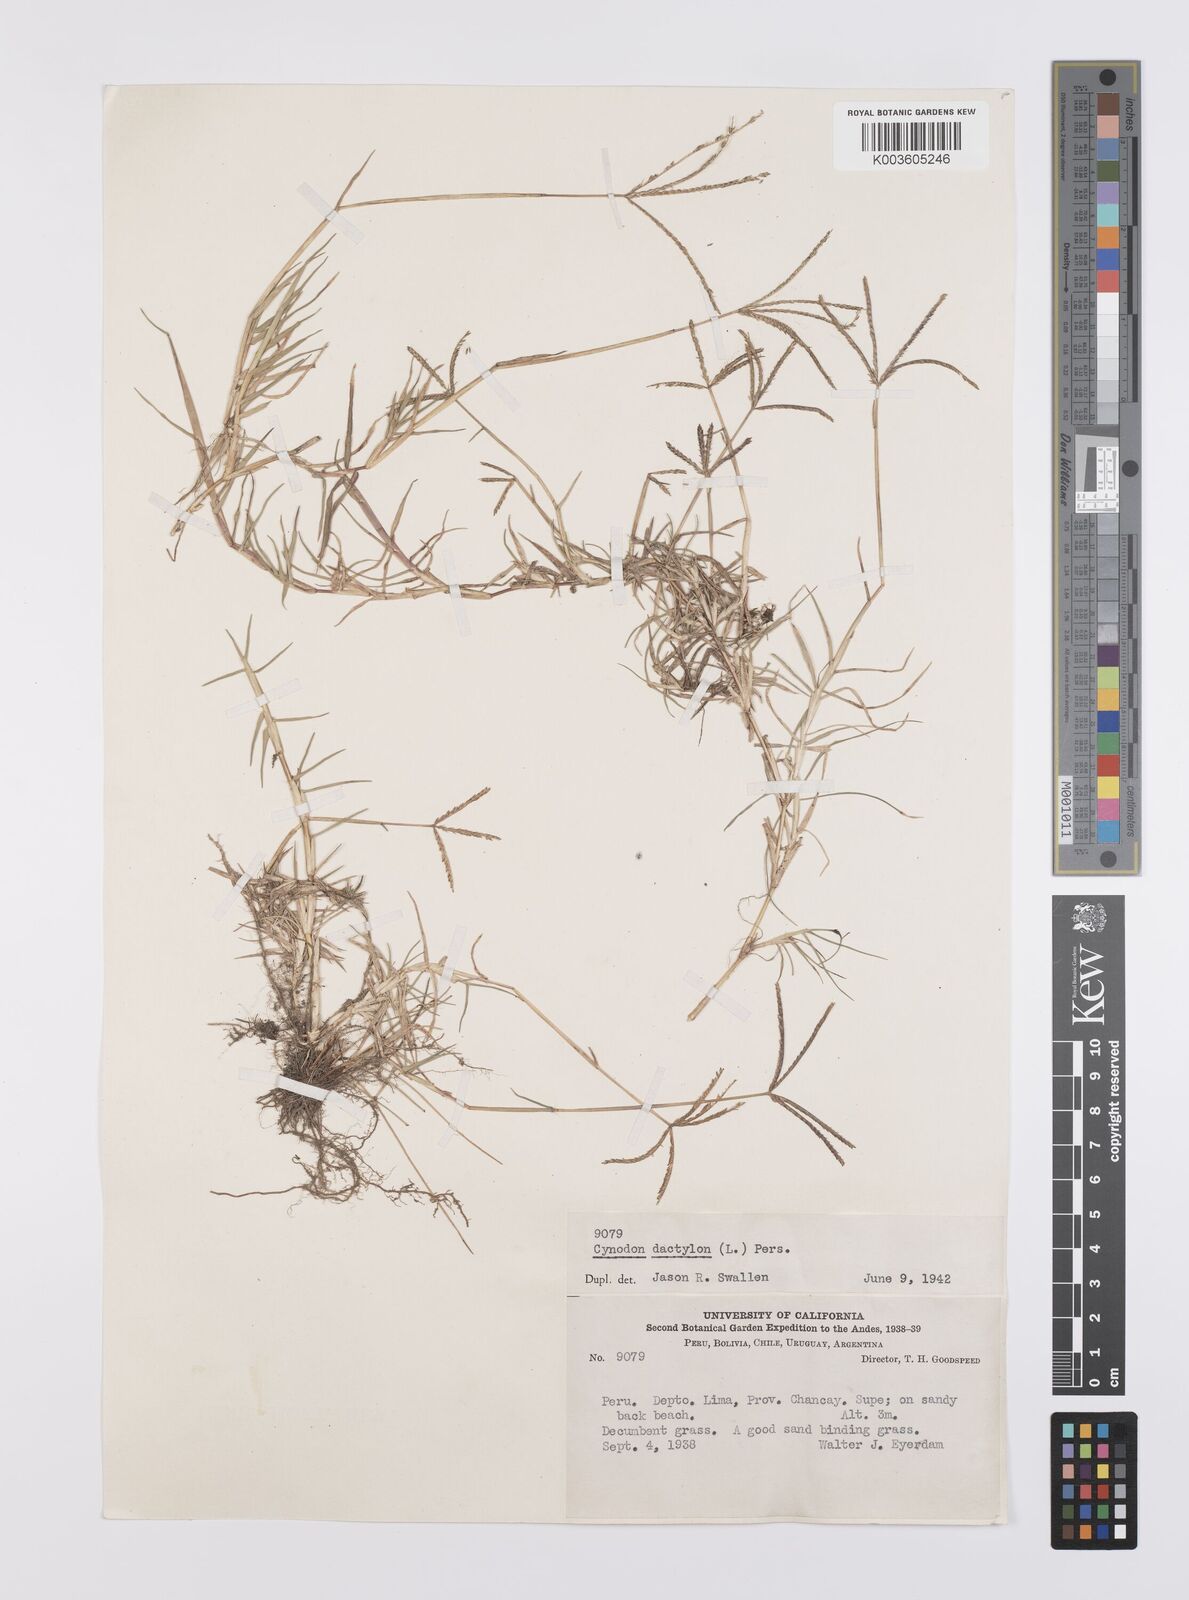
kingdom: Plantae
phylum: Tracheophyta
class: Liliopsida
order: Poales
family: Poaceae
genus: Cynodon
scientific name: Cynodon dactylon
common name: Bermuda grass
